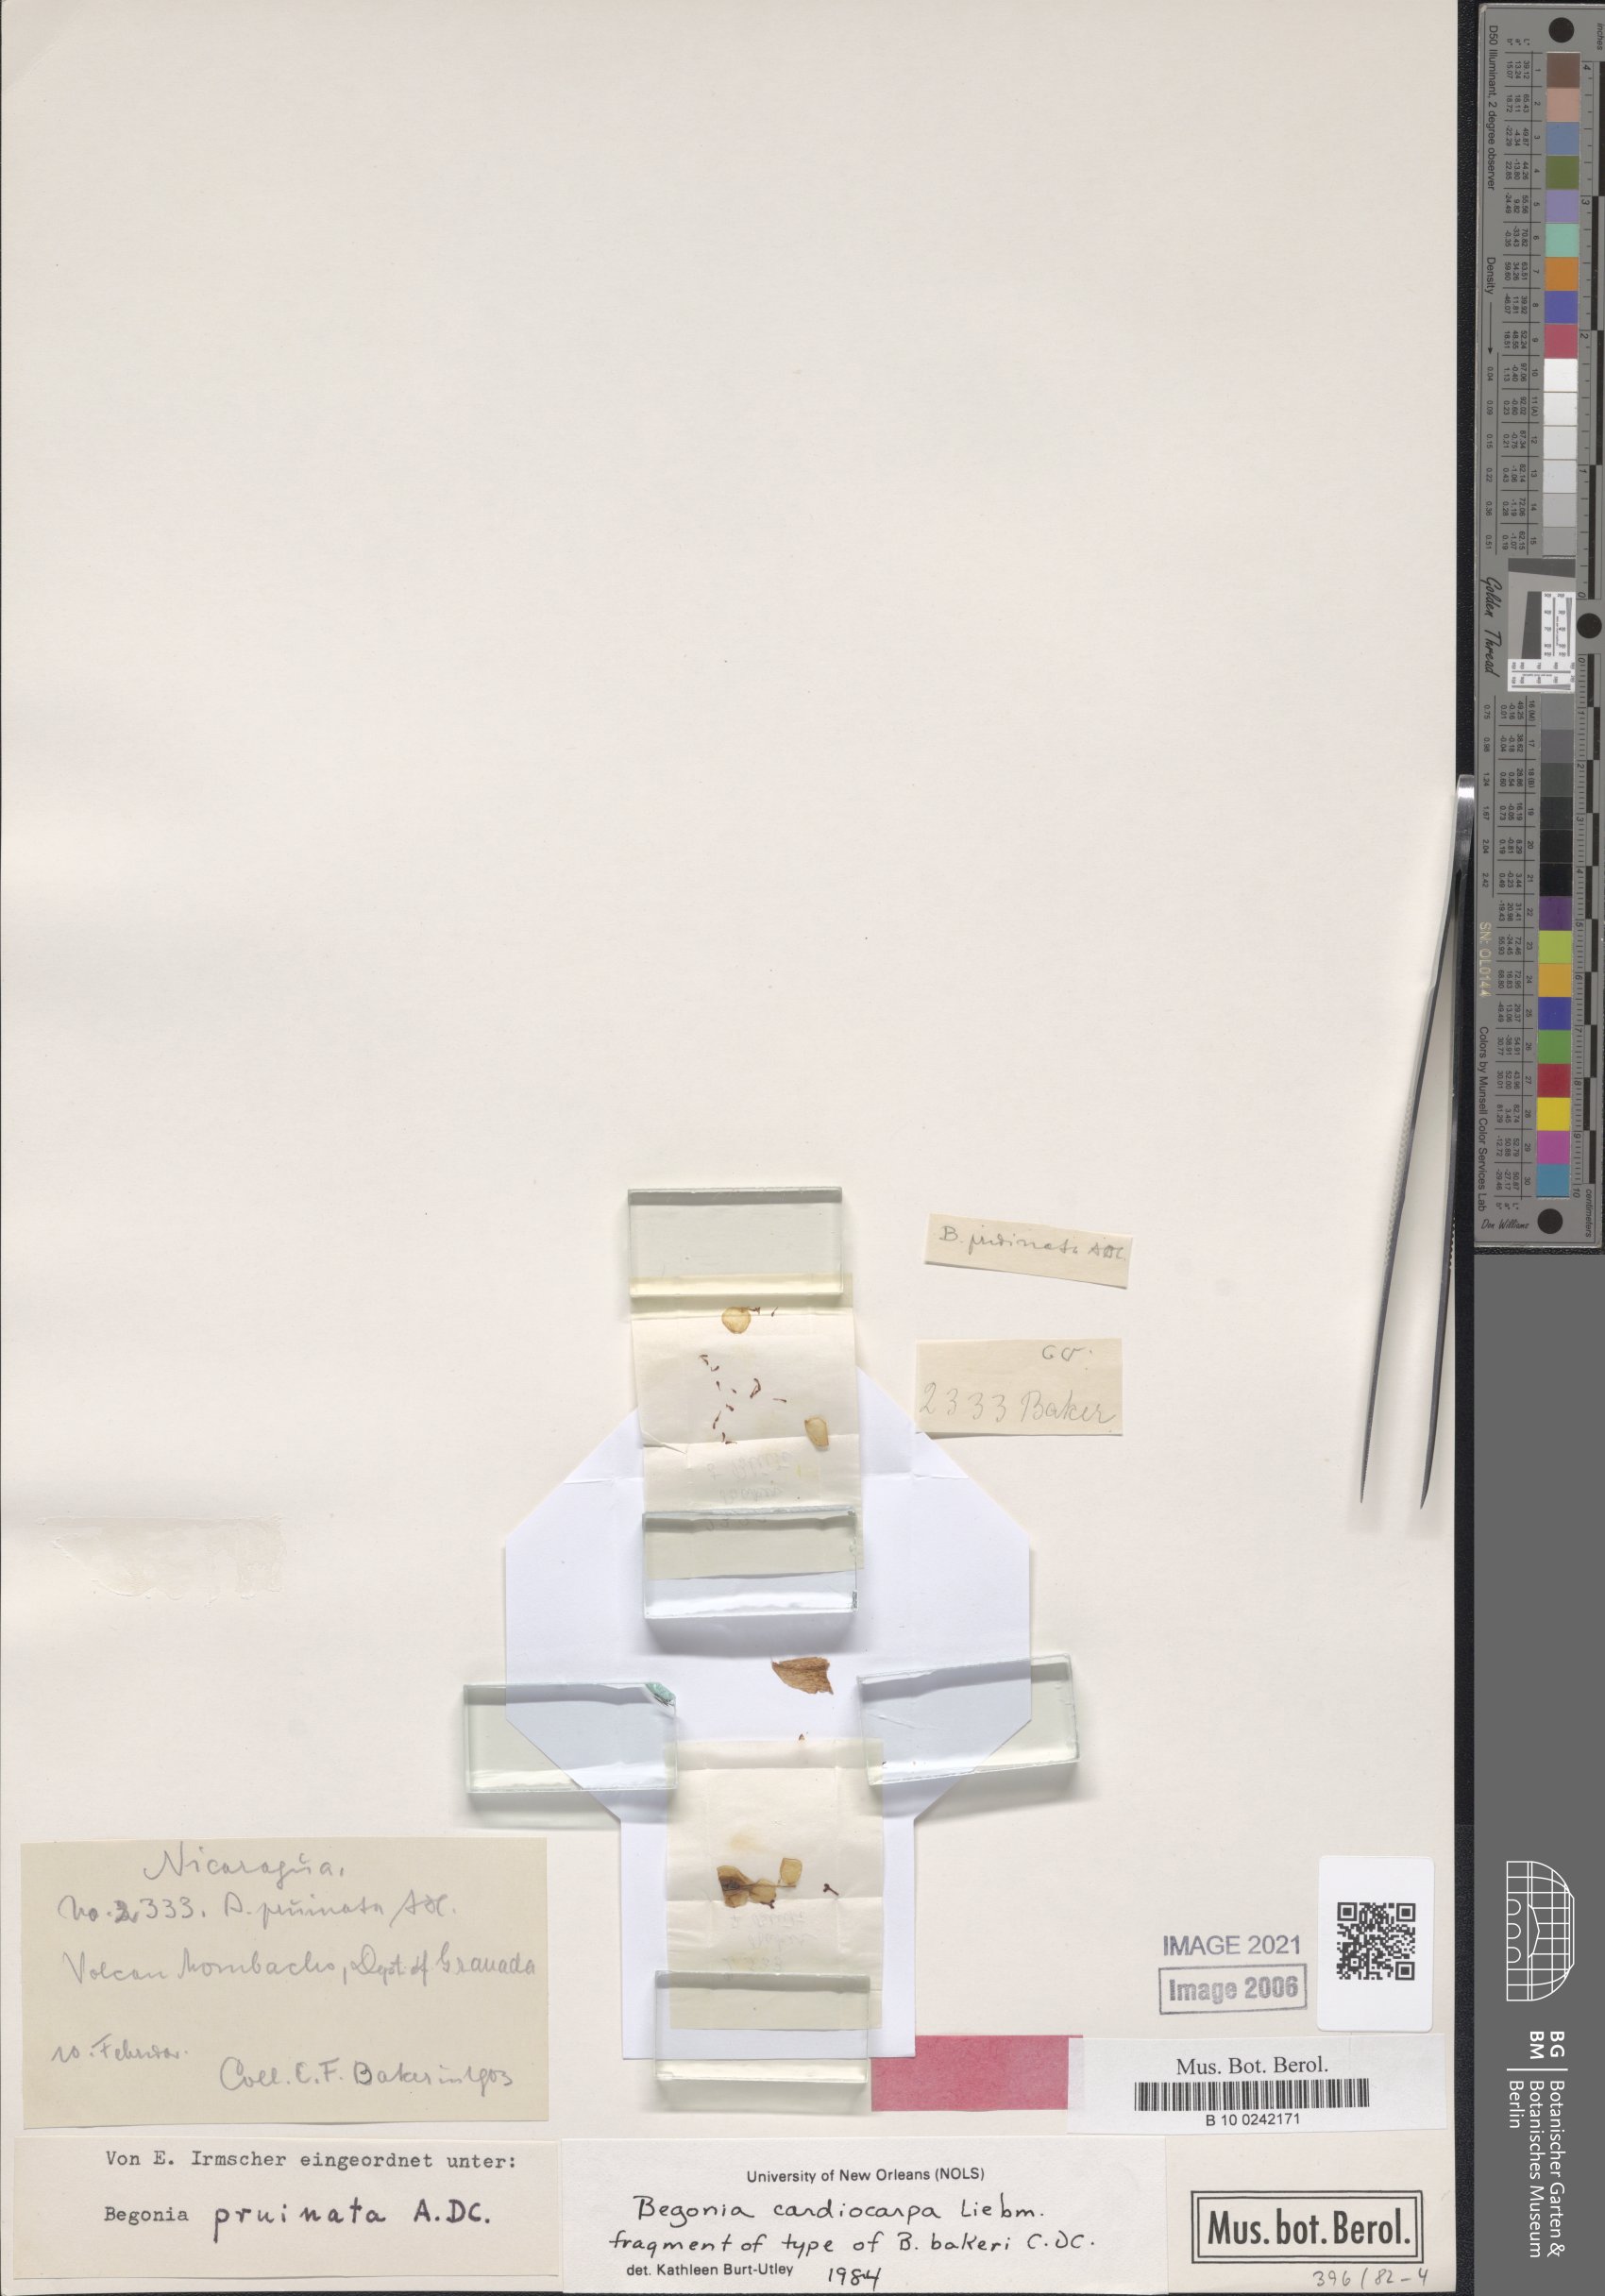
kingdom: Plantae
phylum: Tracheophyta
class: Magnoliopsida
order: Cucurbitales
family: Begoniaceae
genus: Begonia
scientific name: Begonia cardiocarpa
